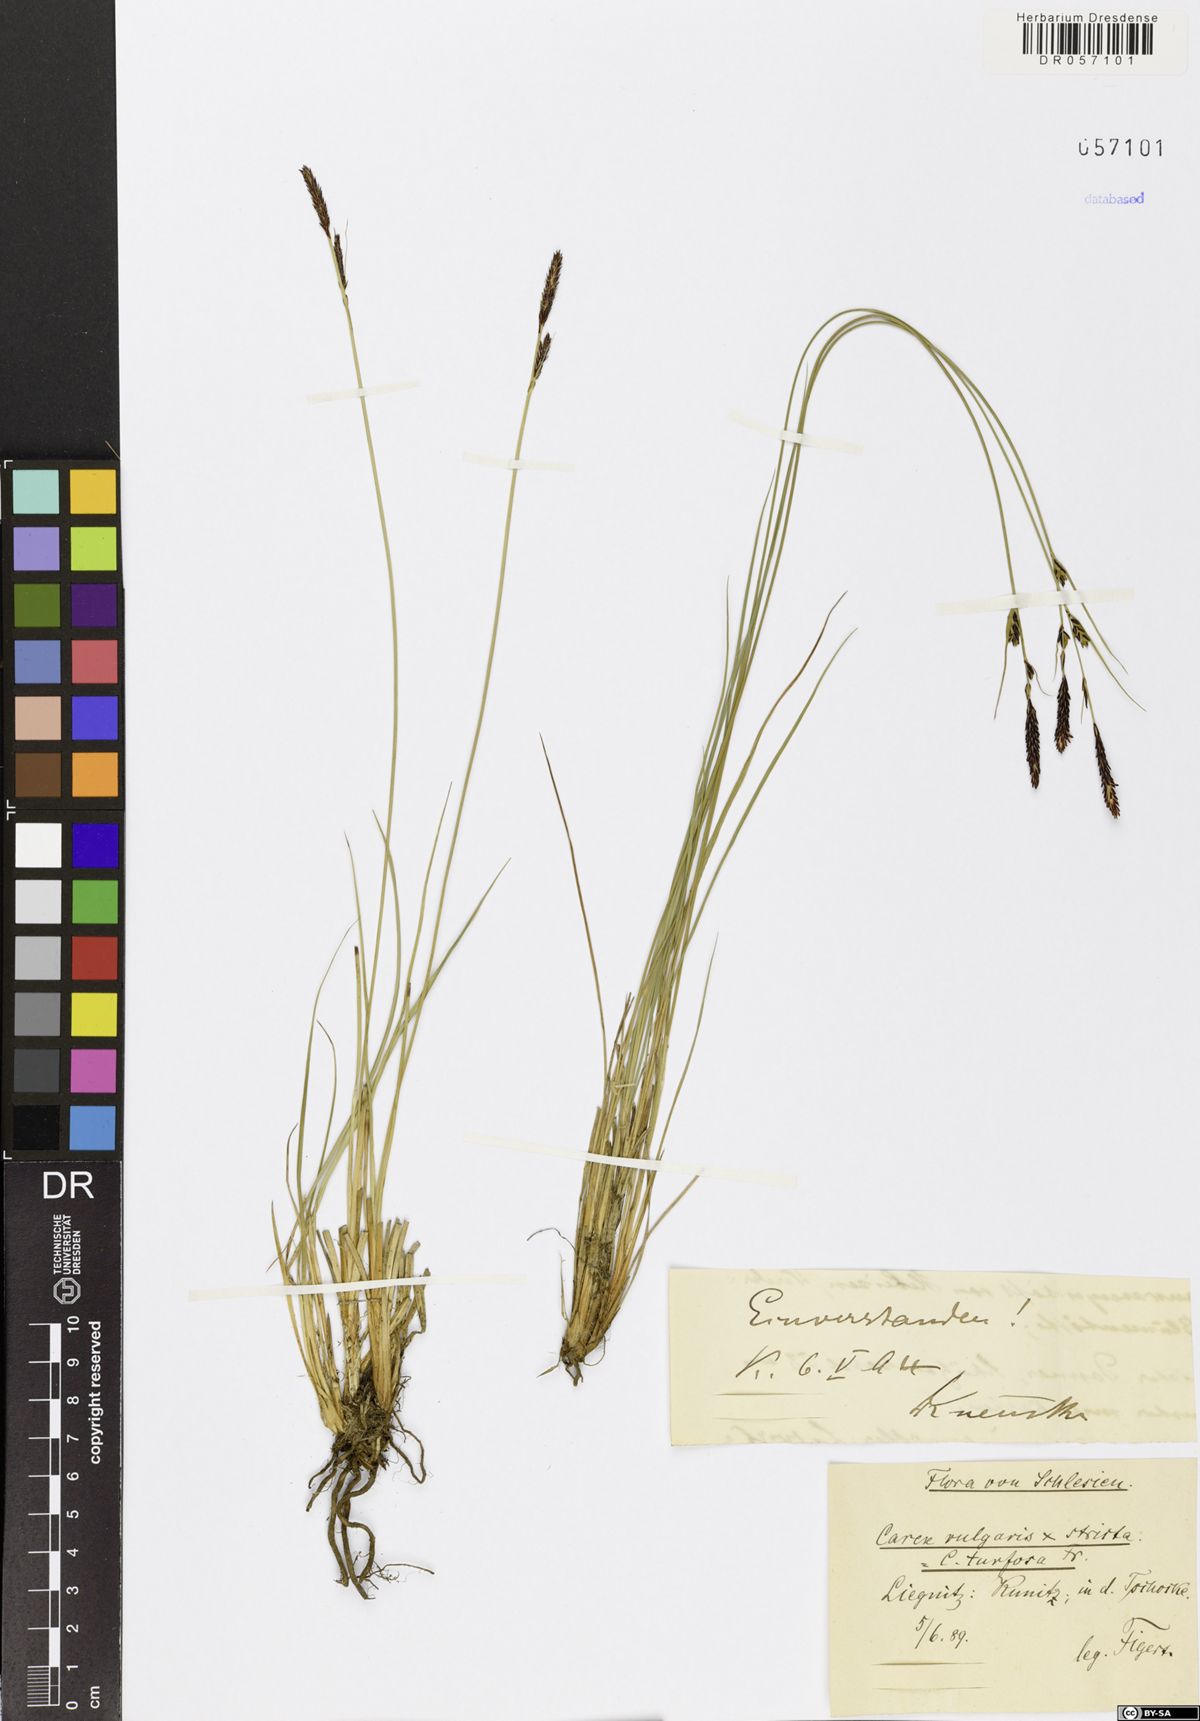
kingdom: Plantae
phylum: Tracheophyta
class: Liliopsida
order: Poales
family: Cyperaceae
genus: Carex
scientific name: Carex turfosa
